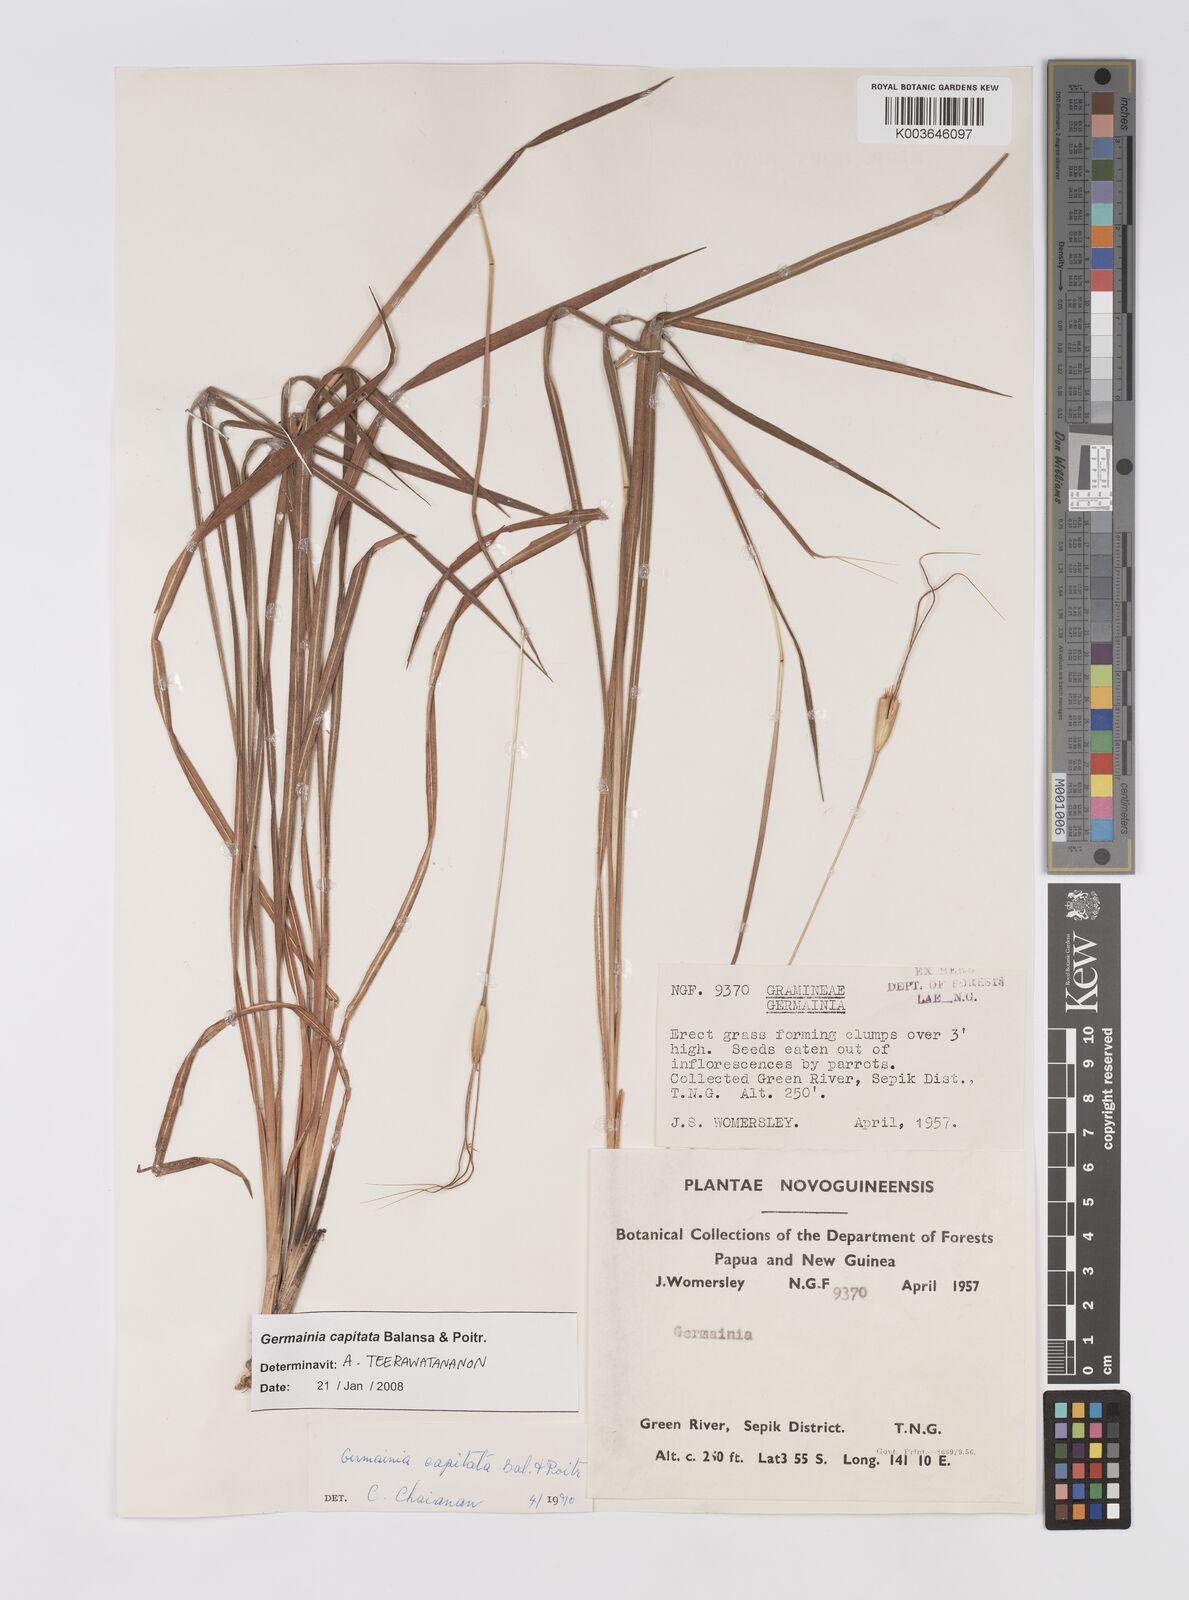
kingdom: Plantae
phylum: Tracheophyta
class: Liliopsida
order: Poales
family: Poaceae
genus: Germainia
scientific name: Germainia capitata
